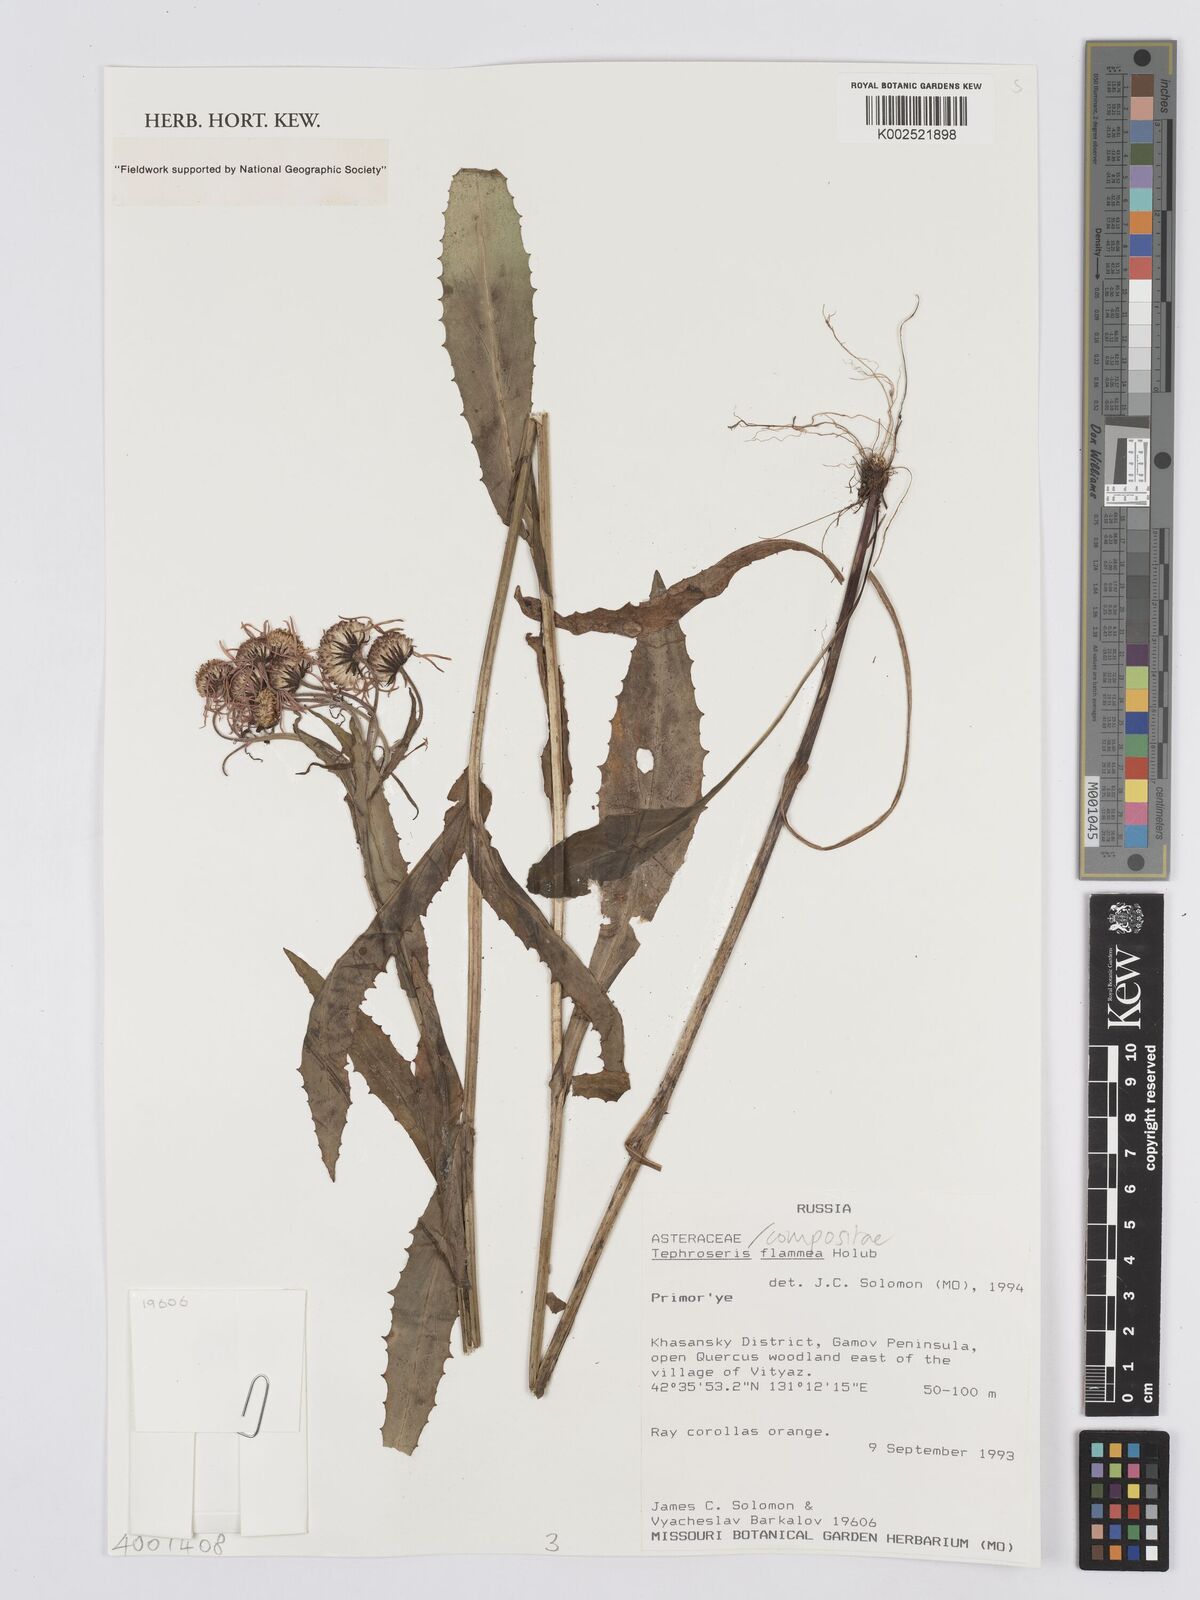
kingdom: Plantae
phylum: Tracheophyta
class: Magnoliopsida
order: Asterales
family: Asteraceae
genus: Tephroseris
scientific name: Tephroseris flammea
